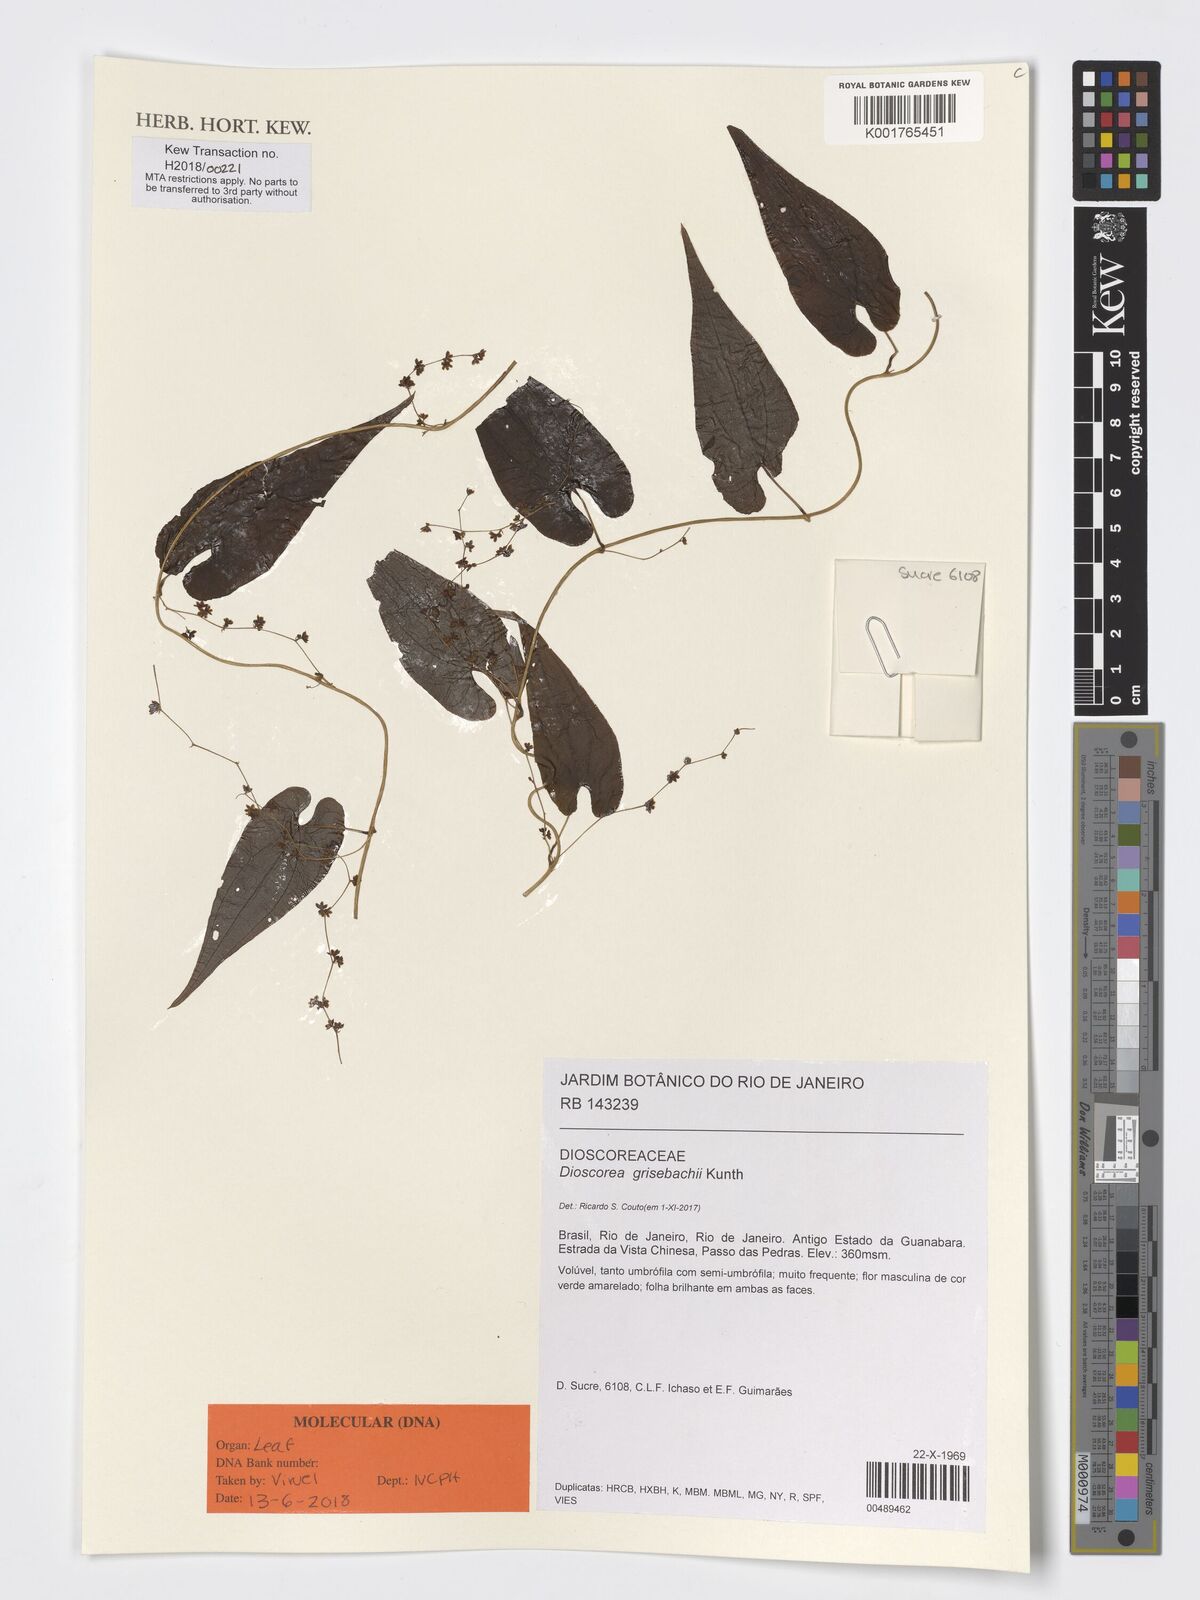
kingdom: Plantae
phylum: Tracheophyta
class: Liliopsida
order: Dioscoreales
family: Dioscoreaceae
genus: Dioscorea
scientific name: Dioscorea grisebachii
